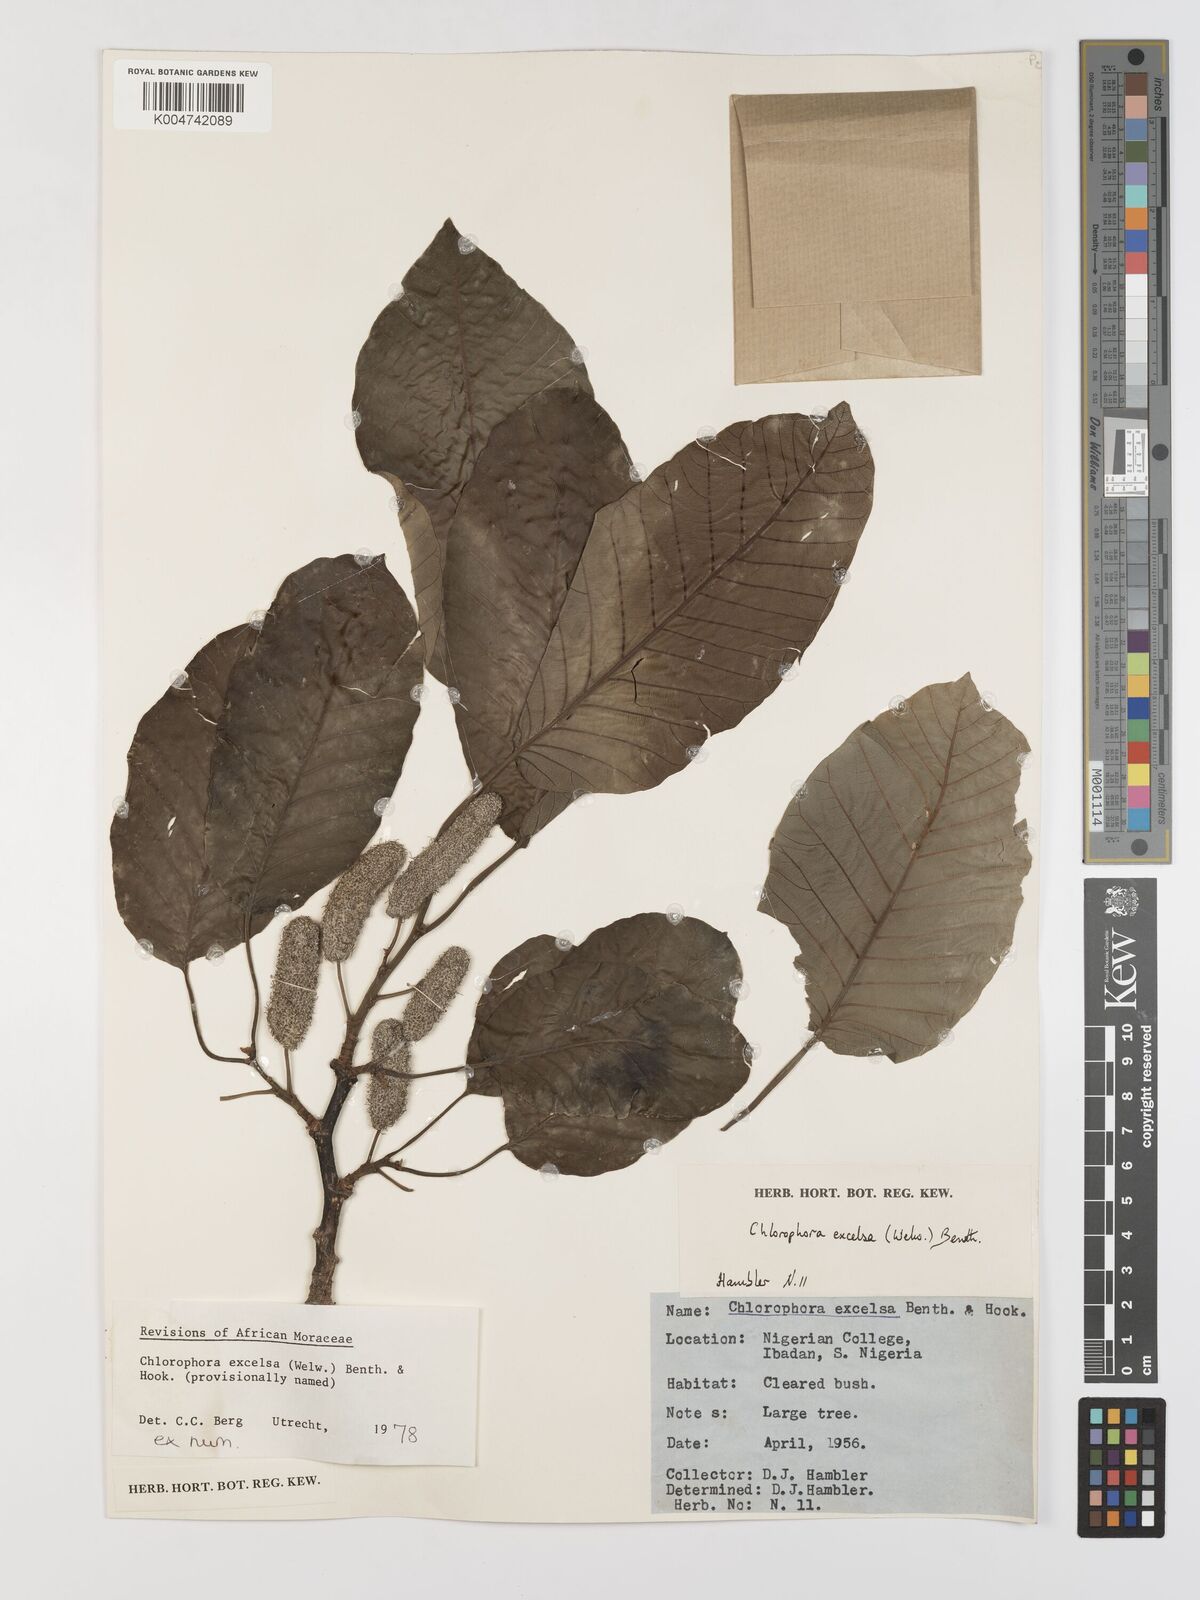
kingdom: Plantae
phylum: Tracheophyta
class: Magnoliopsida
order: Rosales
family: Moraceae
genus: Milicia
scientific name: Milicia excelsa
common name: African teak
